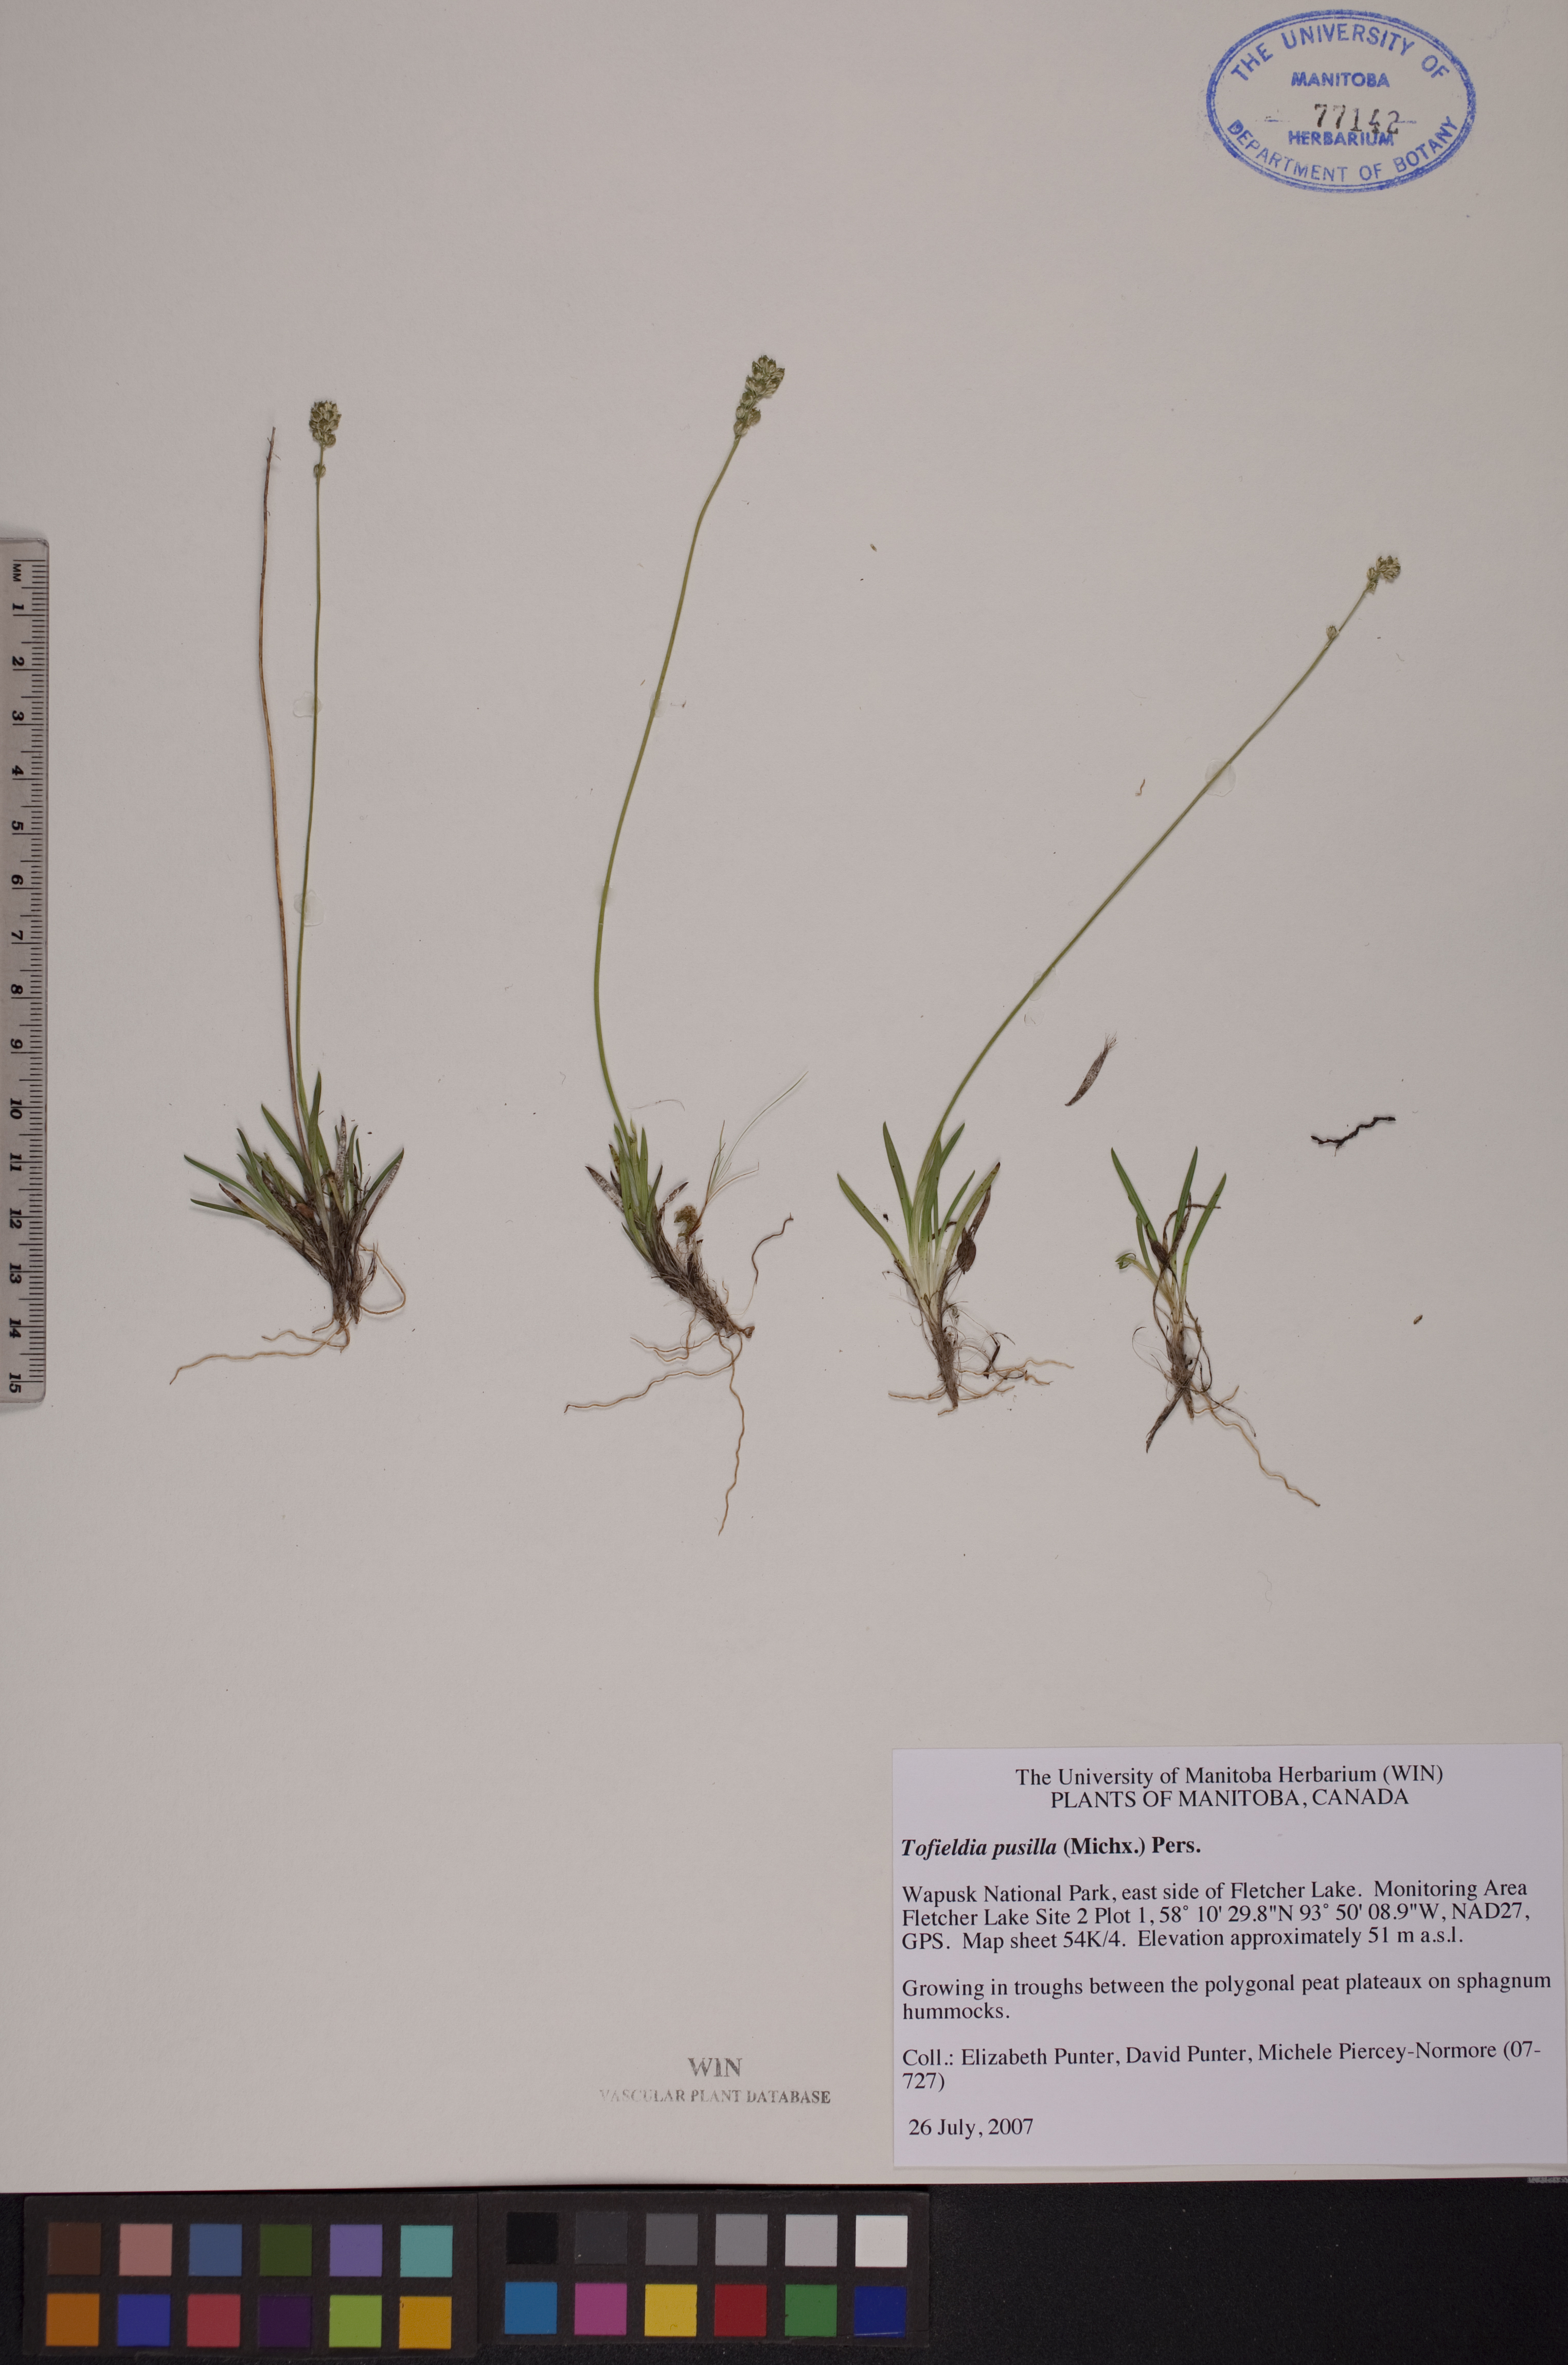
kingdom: Plantae
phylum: Tracheophyta
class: Liliopsida
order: Alismatales
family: Tofieldiaceae
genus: Tofieldia
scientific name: Tofieldia pusilla
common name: Scottish false asphodel
